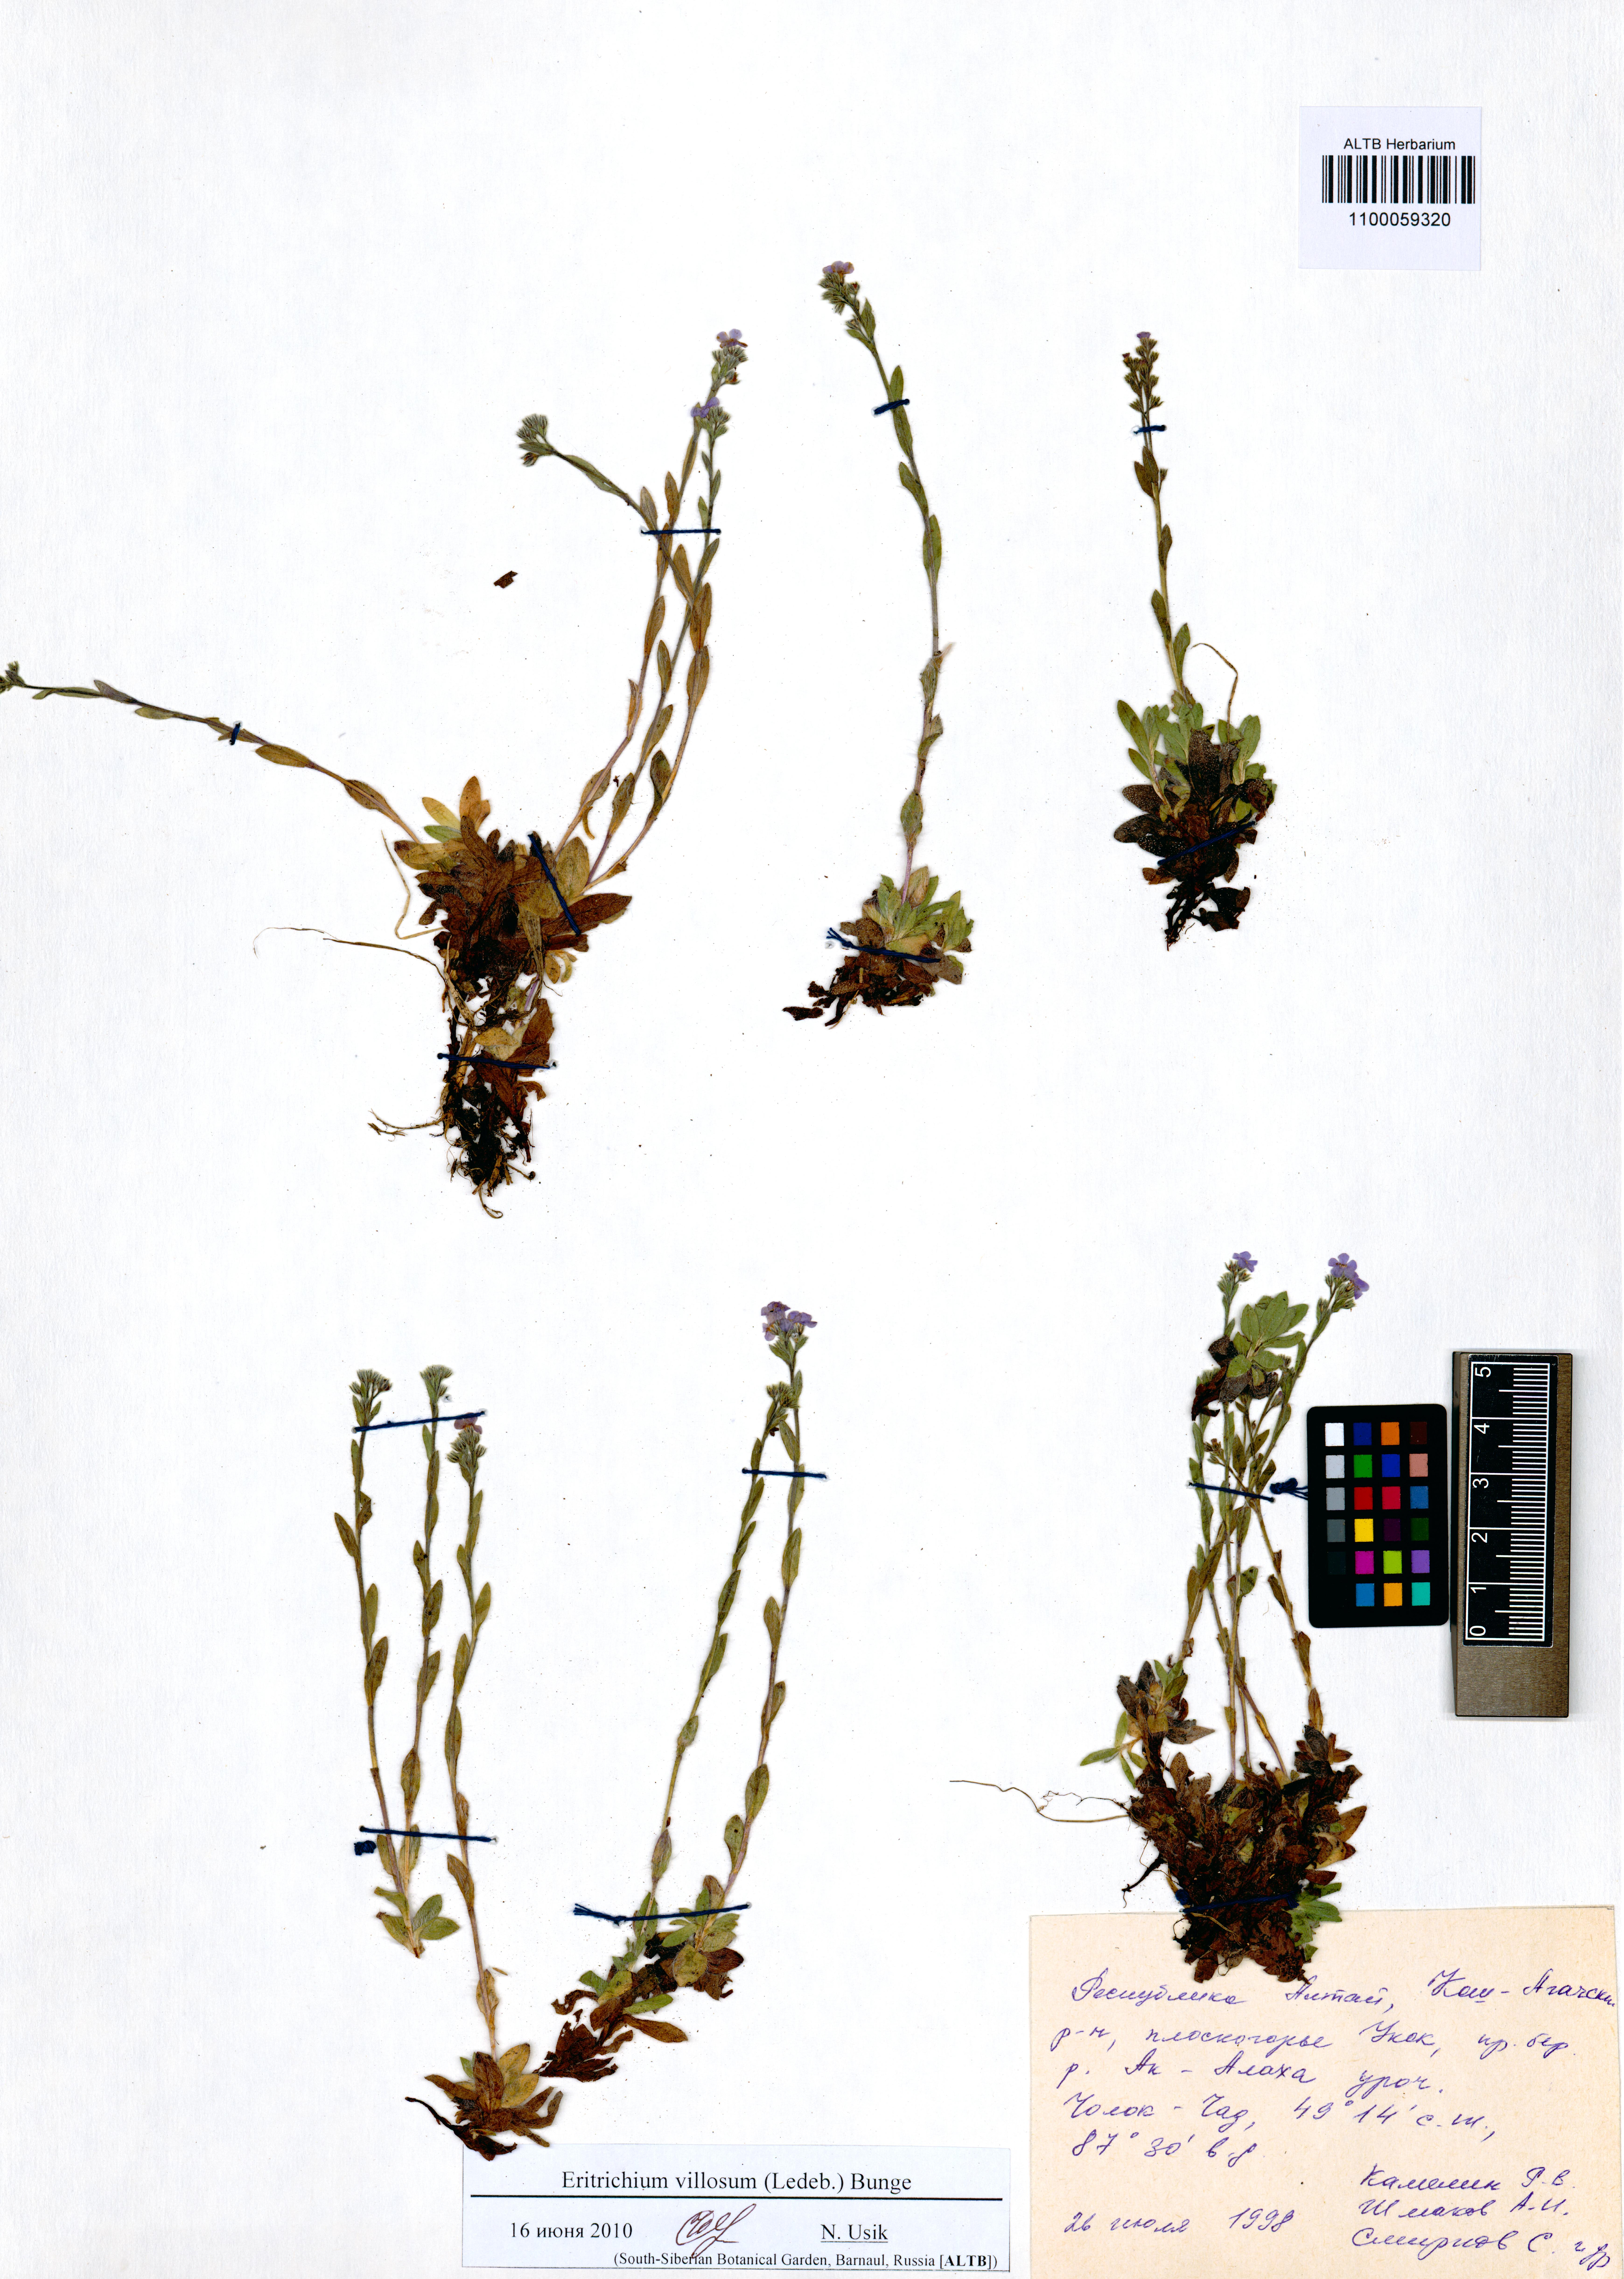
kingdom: Plantae
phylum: Tracheophyta
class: Magnoliopsida
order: Boraginales
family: Boraginaceae
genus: Eritrichium
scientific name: Eritrichium villosum
